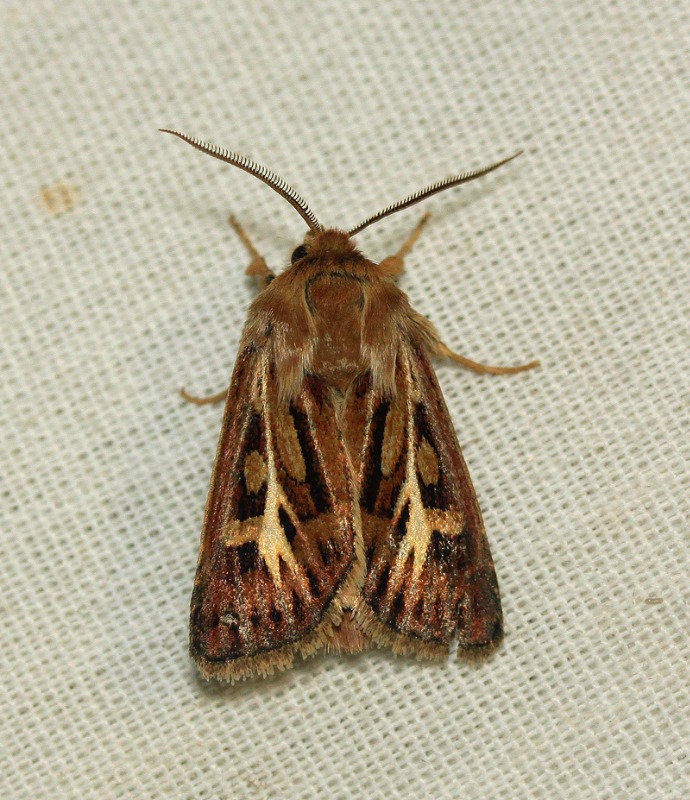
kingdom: Animalia
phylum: Arthropoda
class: Insecta
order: Lepidoptera
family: Noctuidae
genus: Cerapteryx
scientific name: Cerapteryx graminis
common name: Mosebunkeugle
